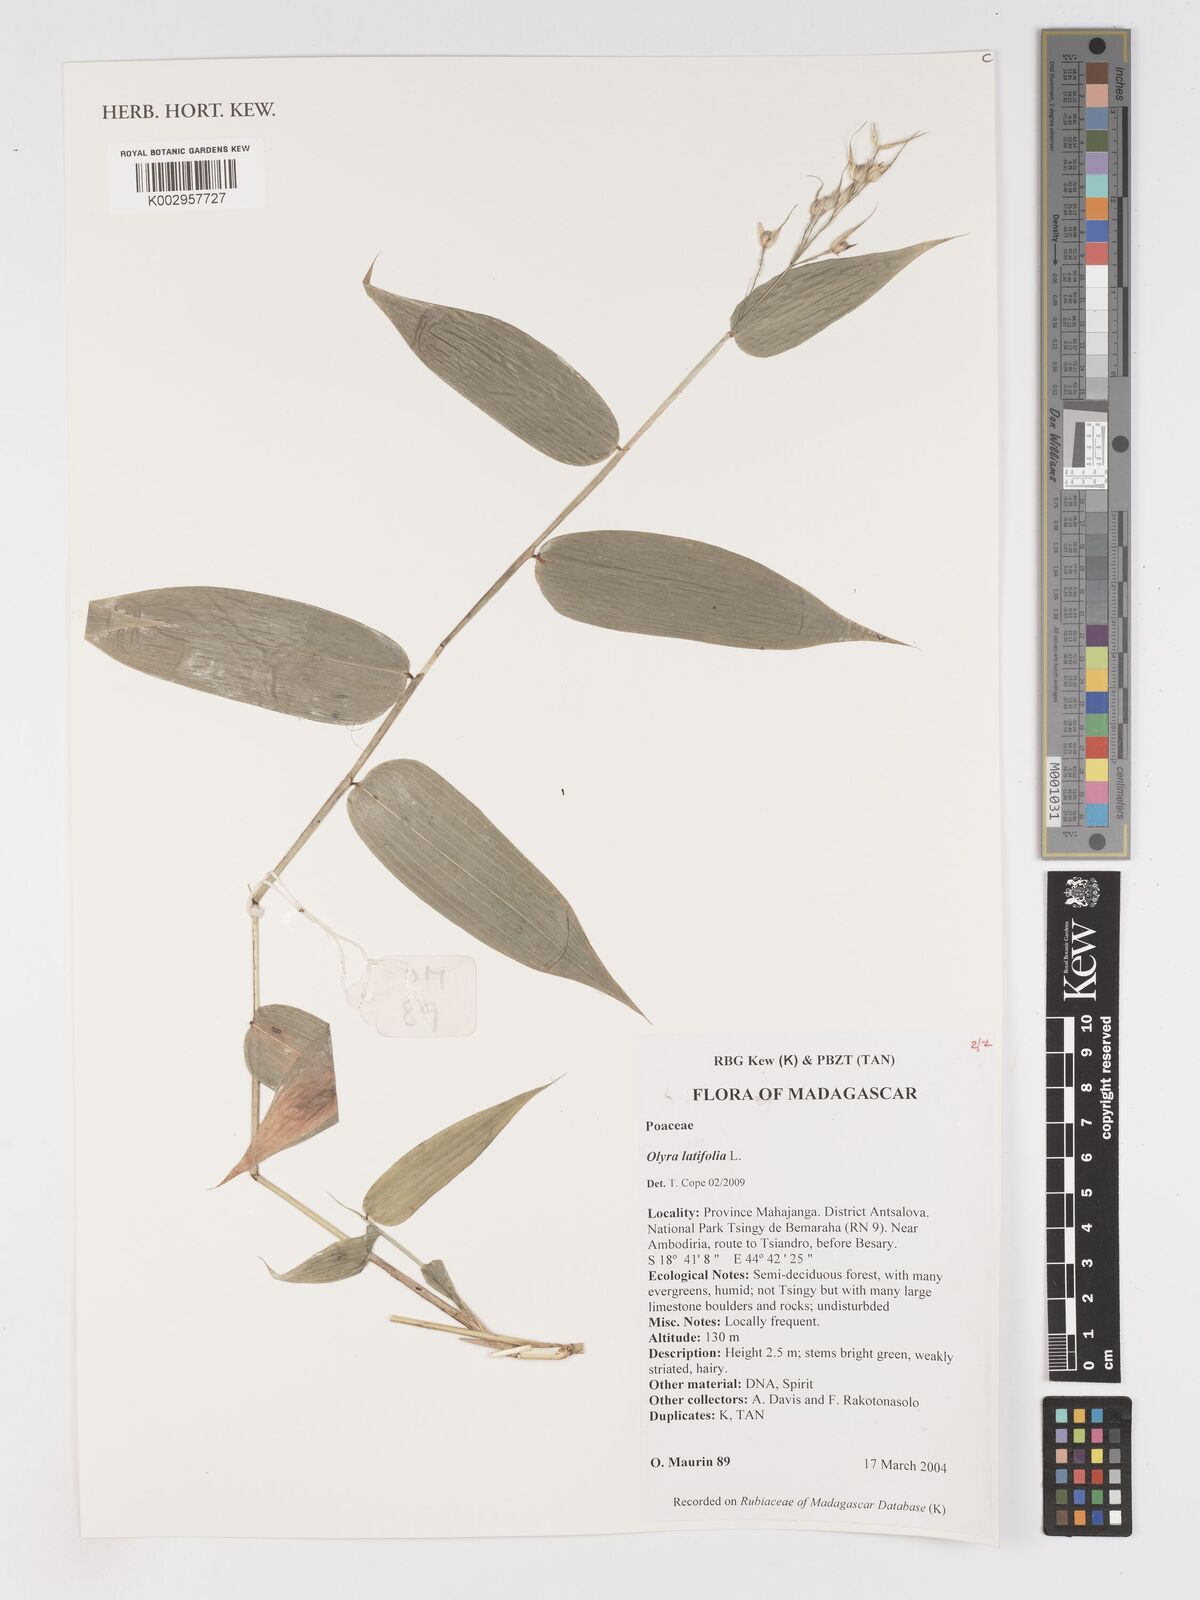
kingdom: Plantae
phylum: Tracheophyta
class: Liliopsida
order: Poales
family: Poaceae
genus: Olyra
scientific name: Olyra latifolia
